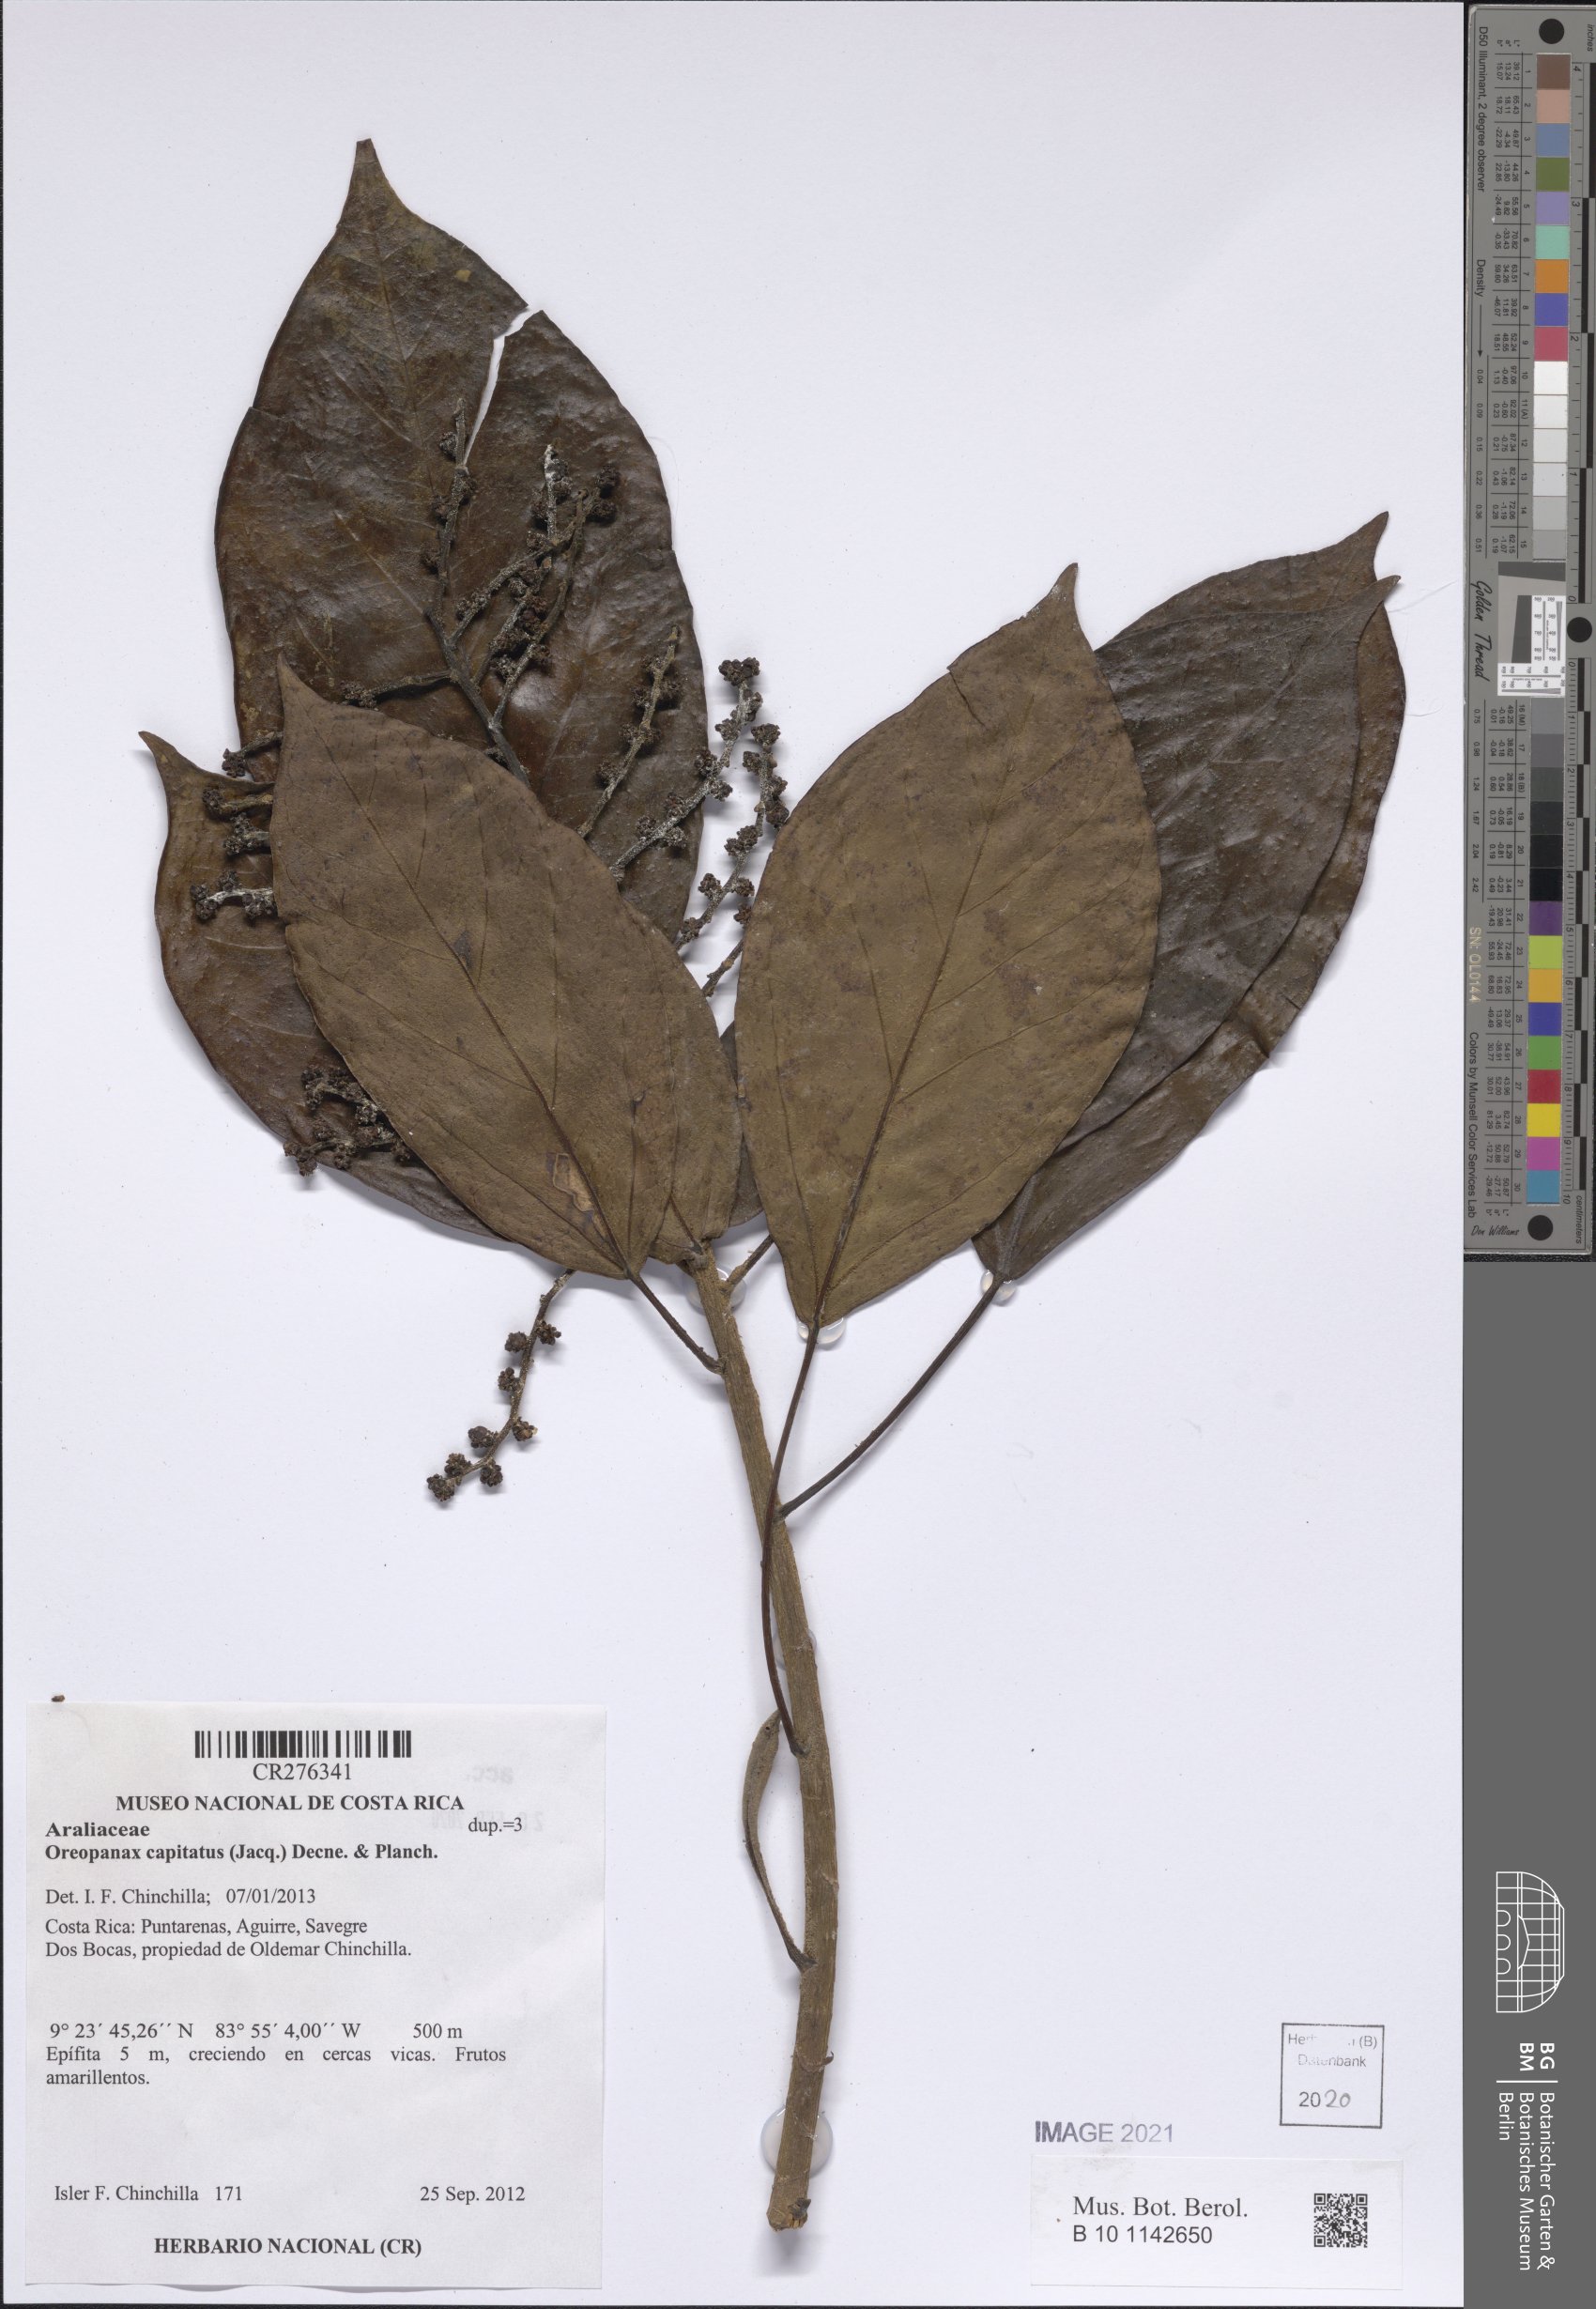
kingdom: Plantae
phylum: Tracheophyta
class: Magnoliopsida
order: Apiales
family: Araliaceae
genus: Oreopanax
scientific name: Oreopanax capitatus
